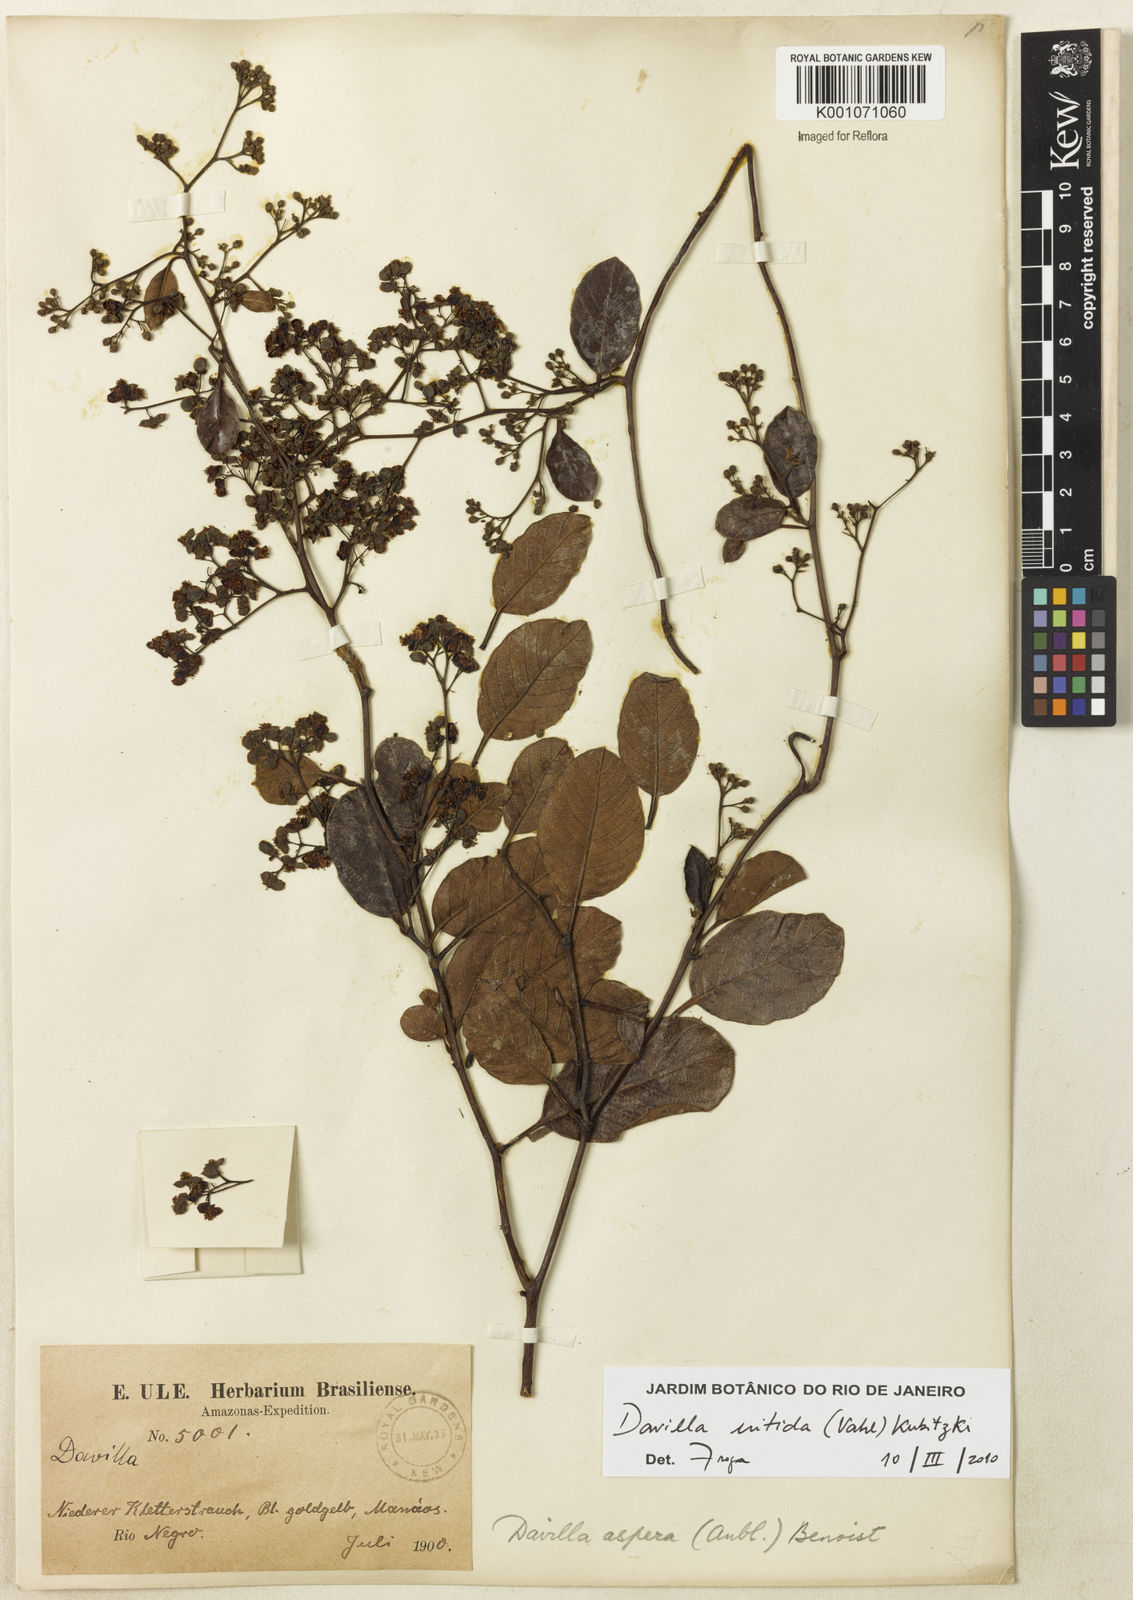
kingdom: Plantae
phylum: Tracheophyta
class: Magnoliopsida
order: Dilleniales
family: Dilleniaceae
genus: Davilla
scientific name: Davilla kunthii
